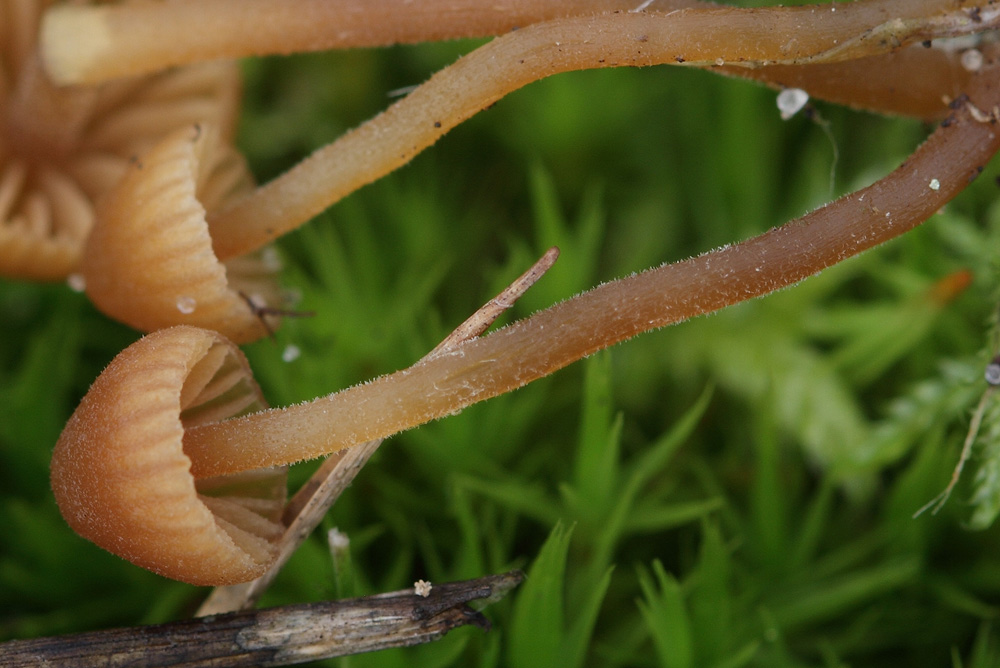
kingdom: Fungi
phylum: Basidiomycota
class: Agaricomycetes
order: Agaricales
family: Hymenogastraceae
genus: Galerina
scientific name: Galerina atkinsoniana
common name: Hairy bell
